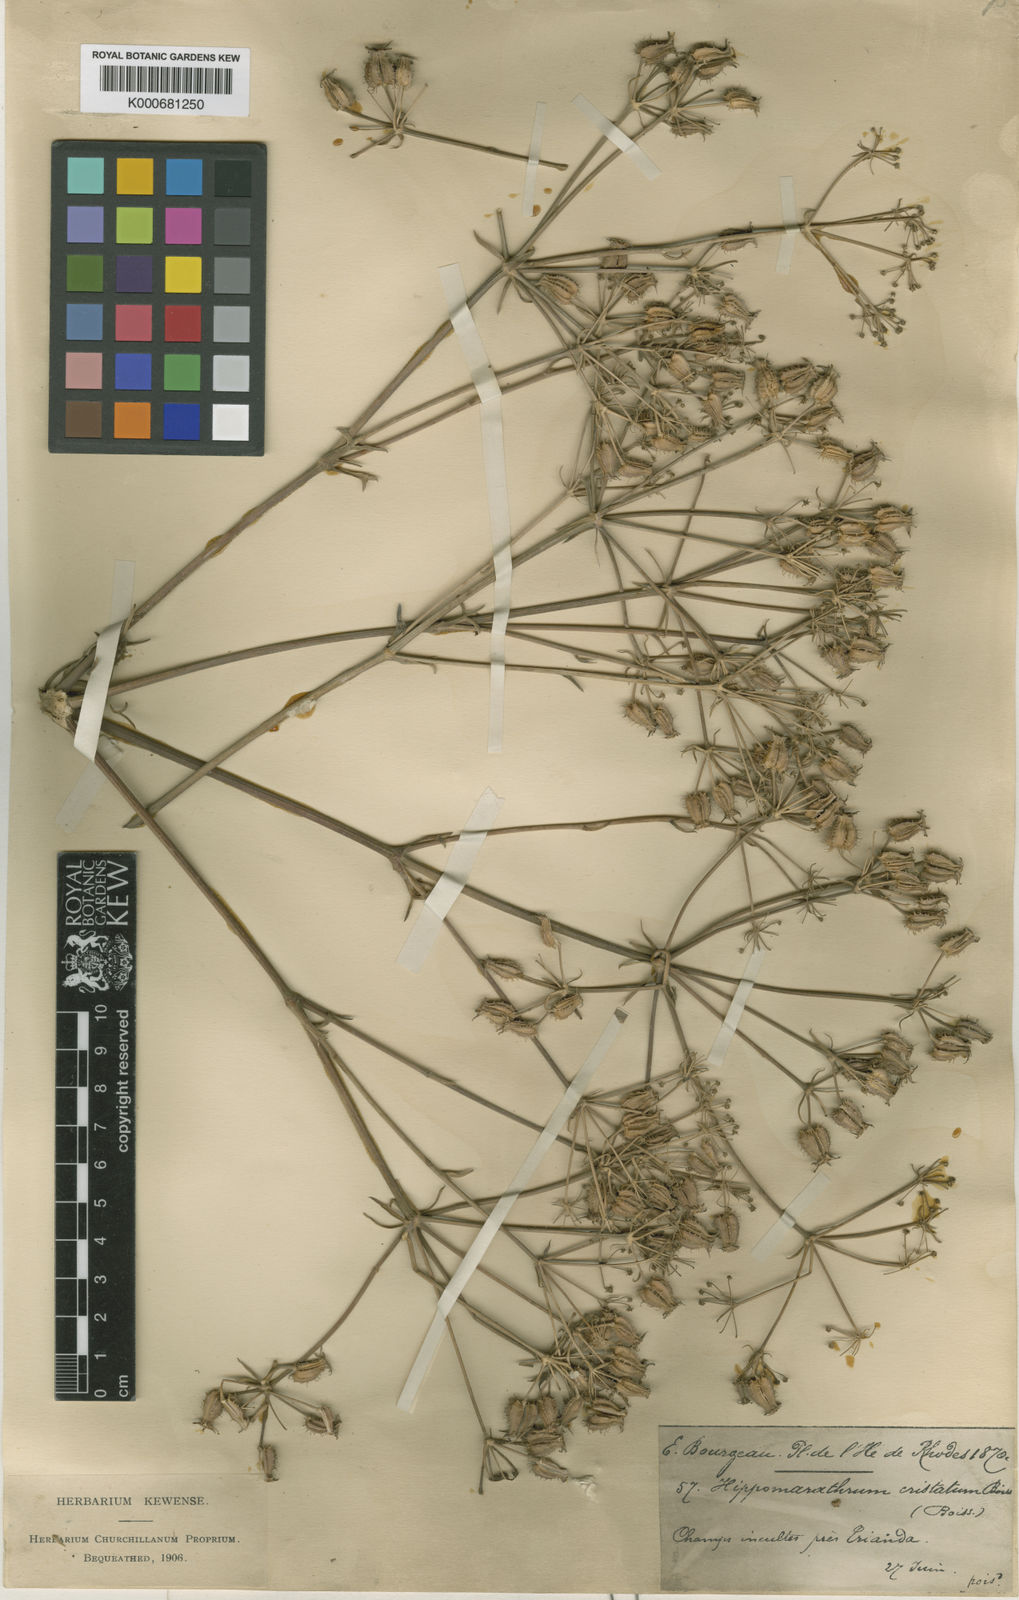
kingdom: Plantae
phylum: Tracheophyta
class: Magnoliopsida
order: Apiales
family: Apiaceae
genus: Hippomarathrum
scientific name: Hippomarathrum
